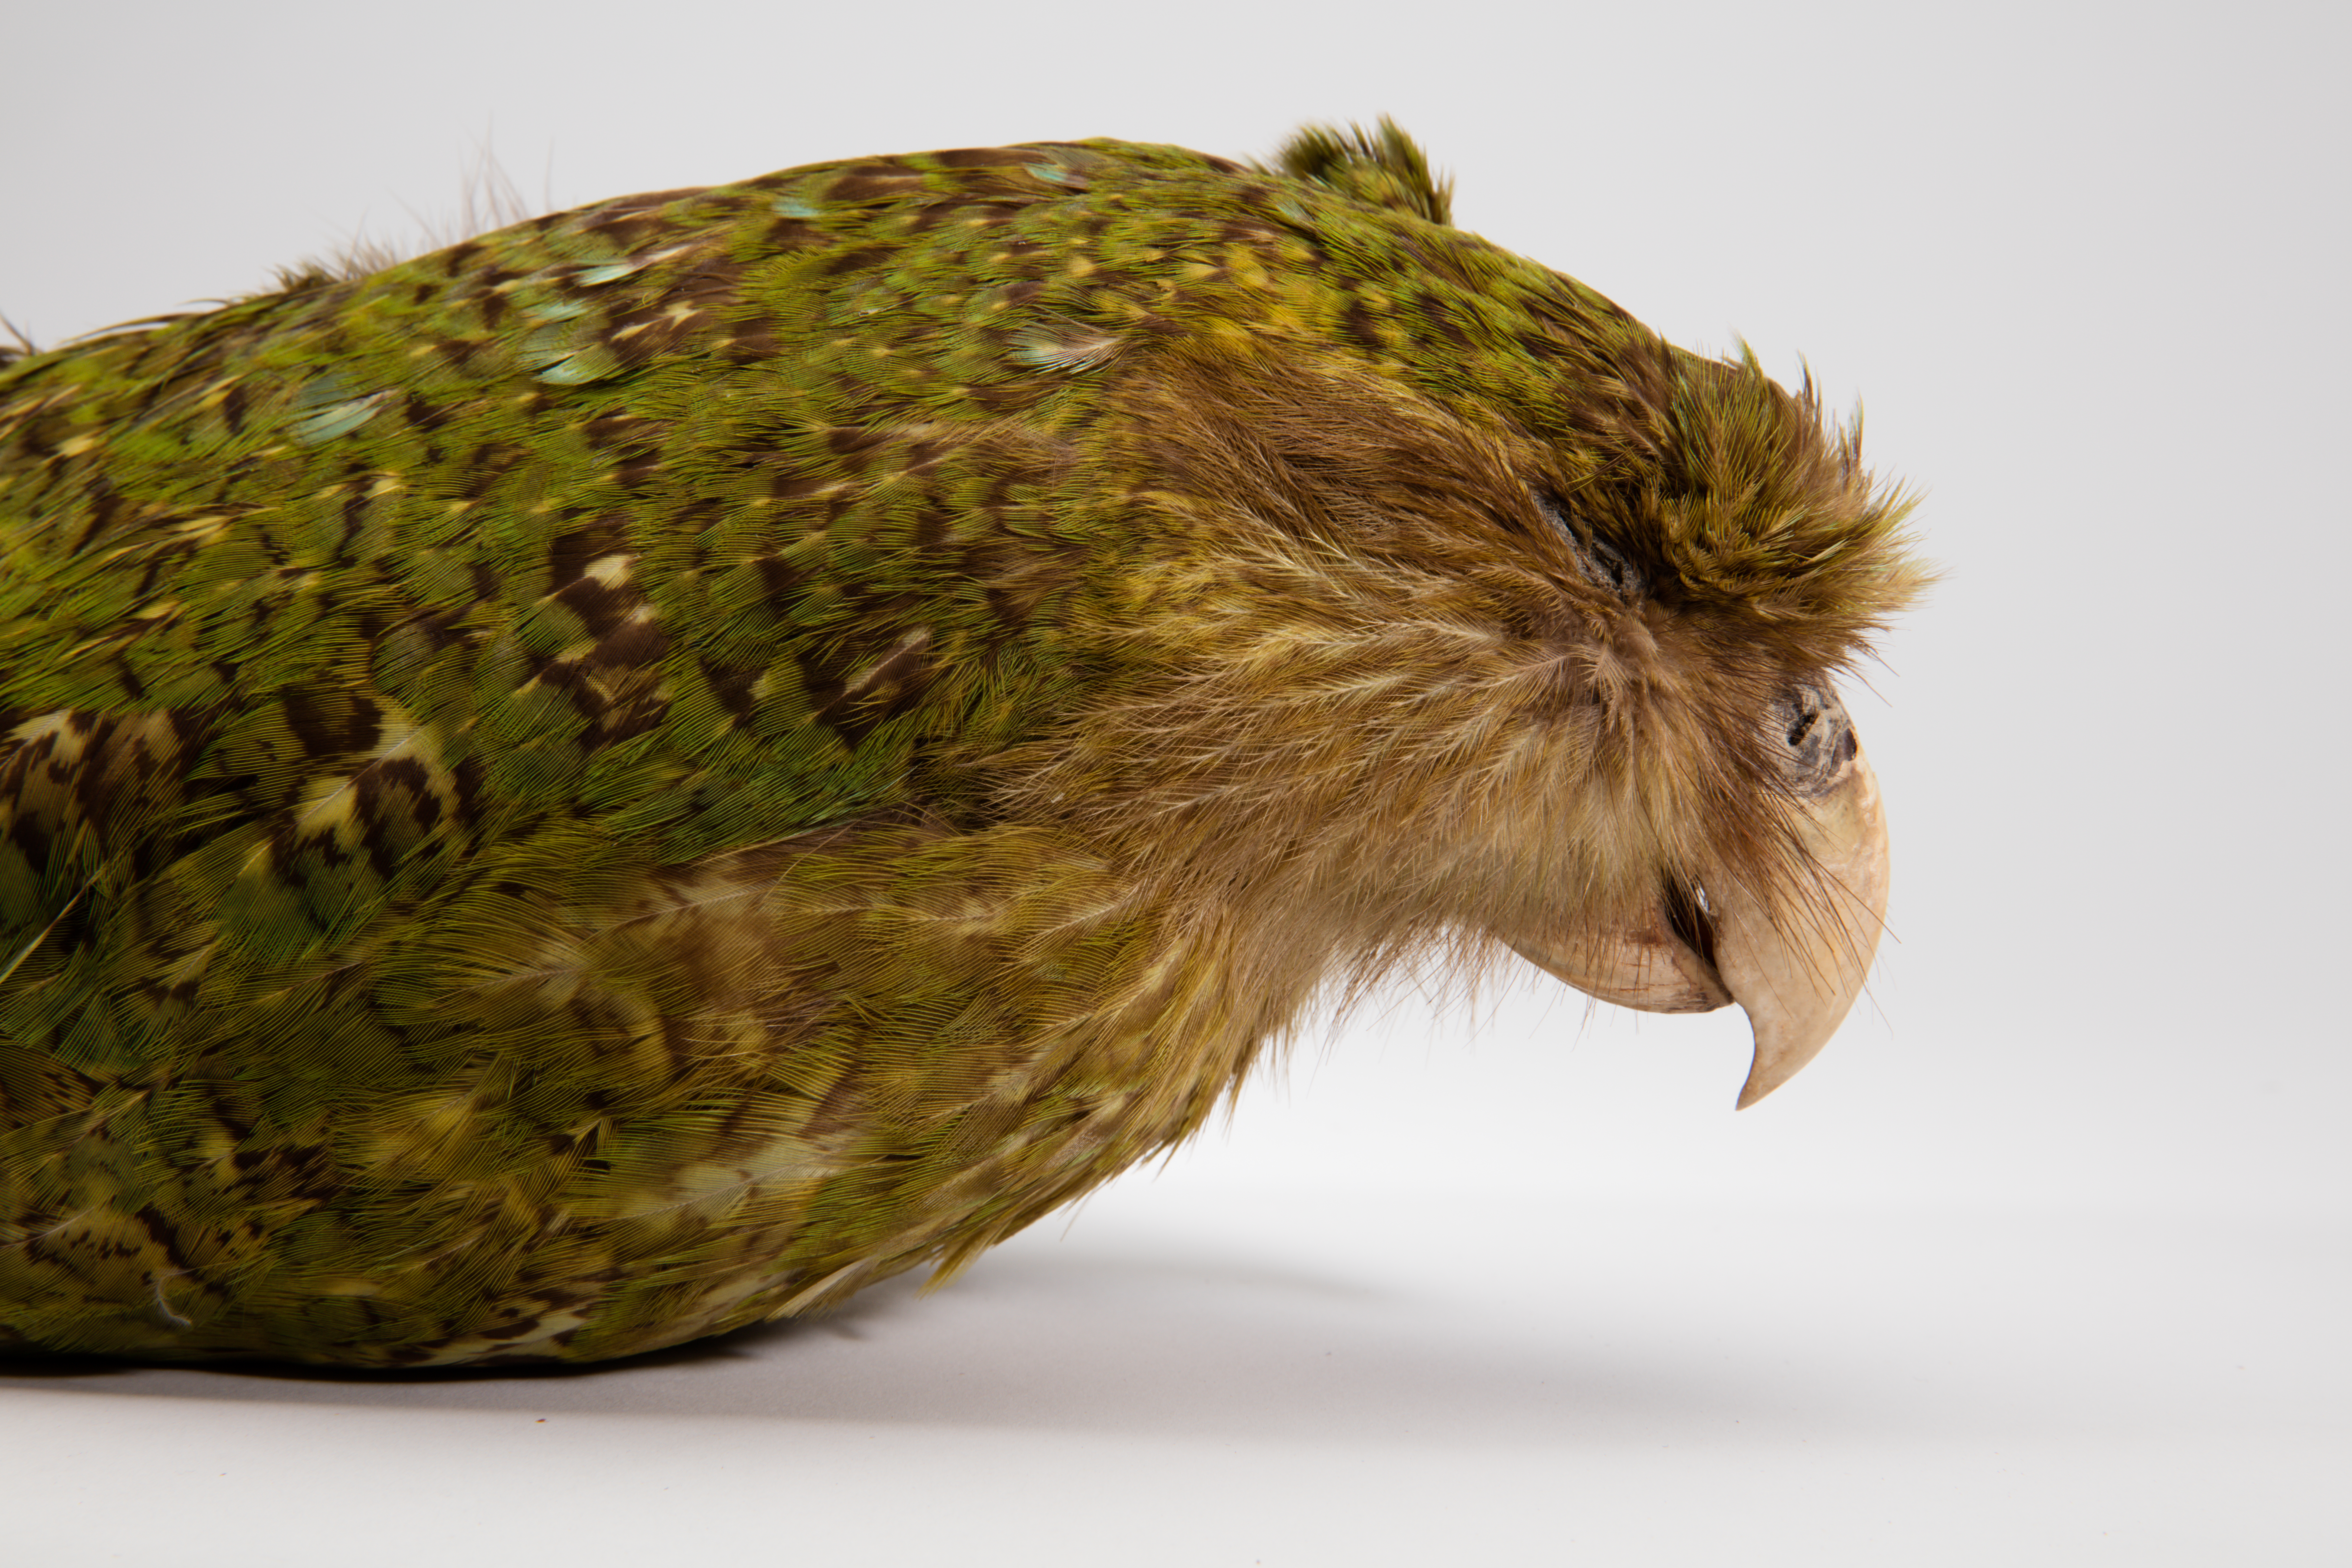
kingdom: Animalia
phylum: Chordata
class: Aves
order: Psittaciformes
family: Psittacidae
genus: Strigops
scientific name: Strigops habroptila
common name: Kakapo
